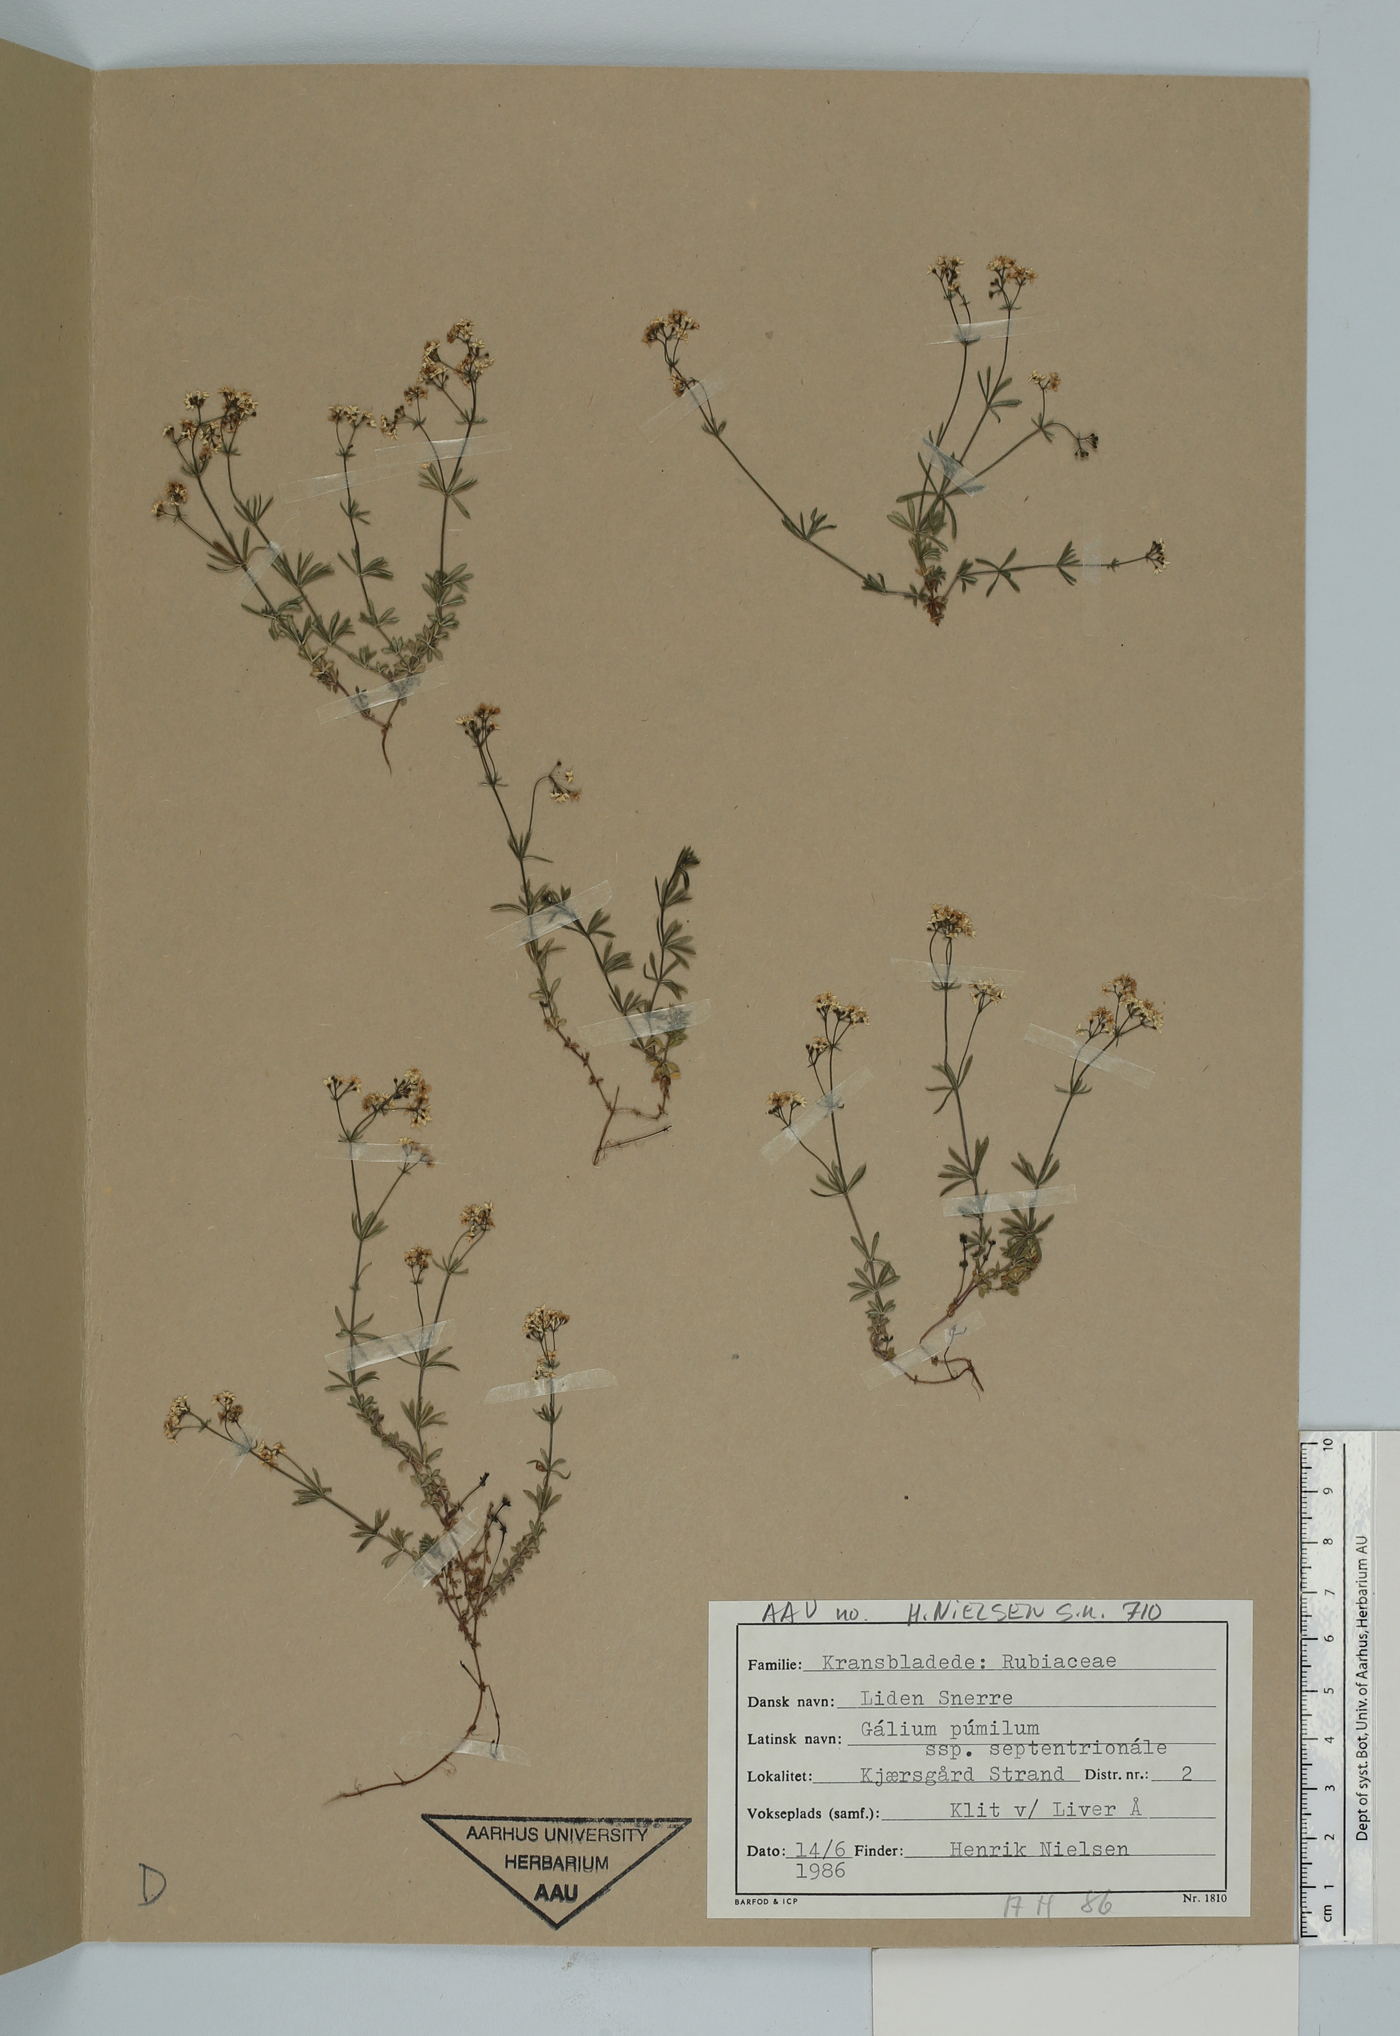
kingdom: Plantae
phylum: Tracheophyta
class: Magnoliopsida
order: Gentianales
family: Rubiaceae
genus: Galium
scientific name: Galium sterneri
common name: Limestone bedstraw
